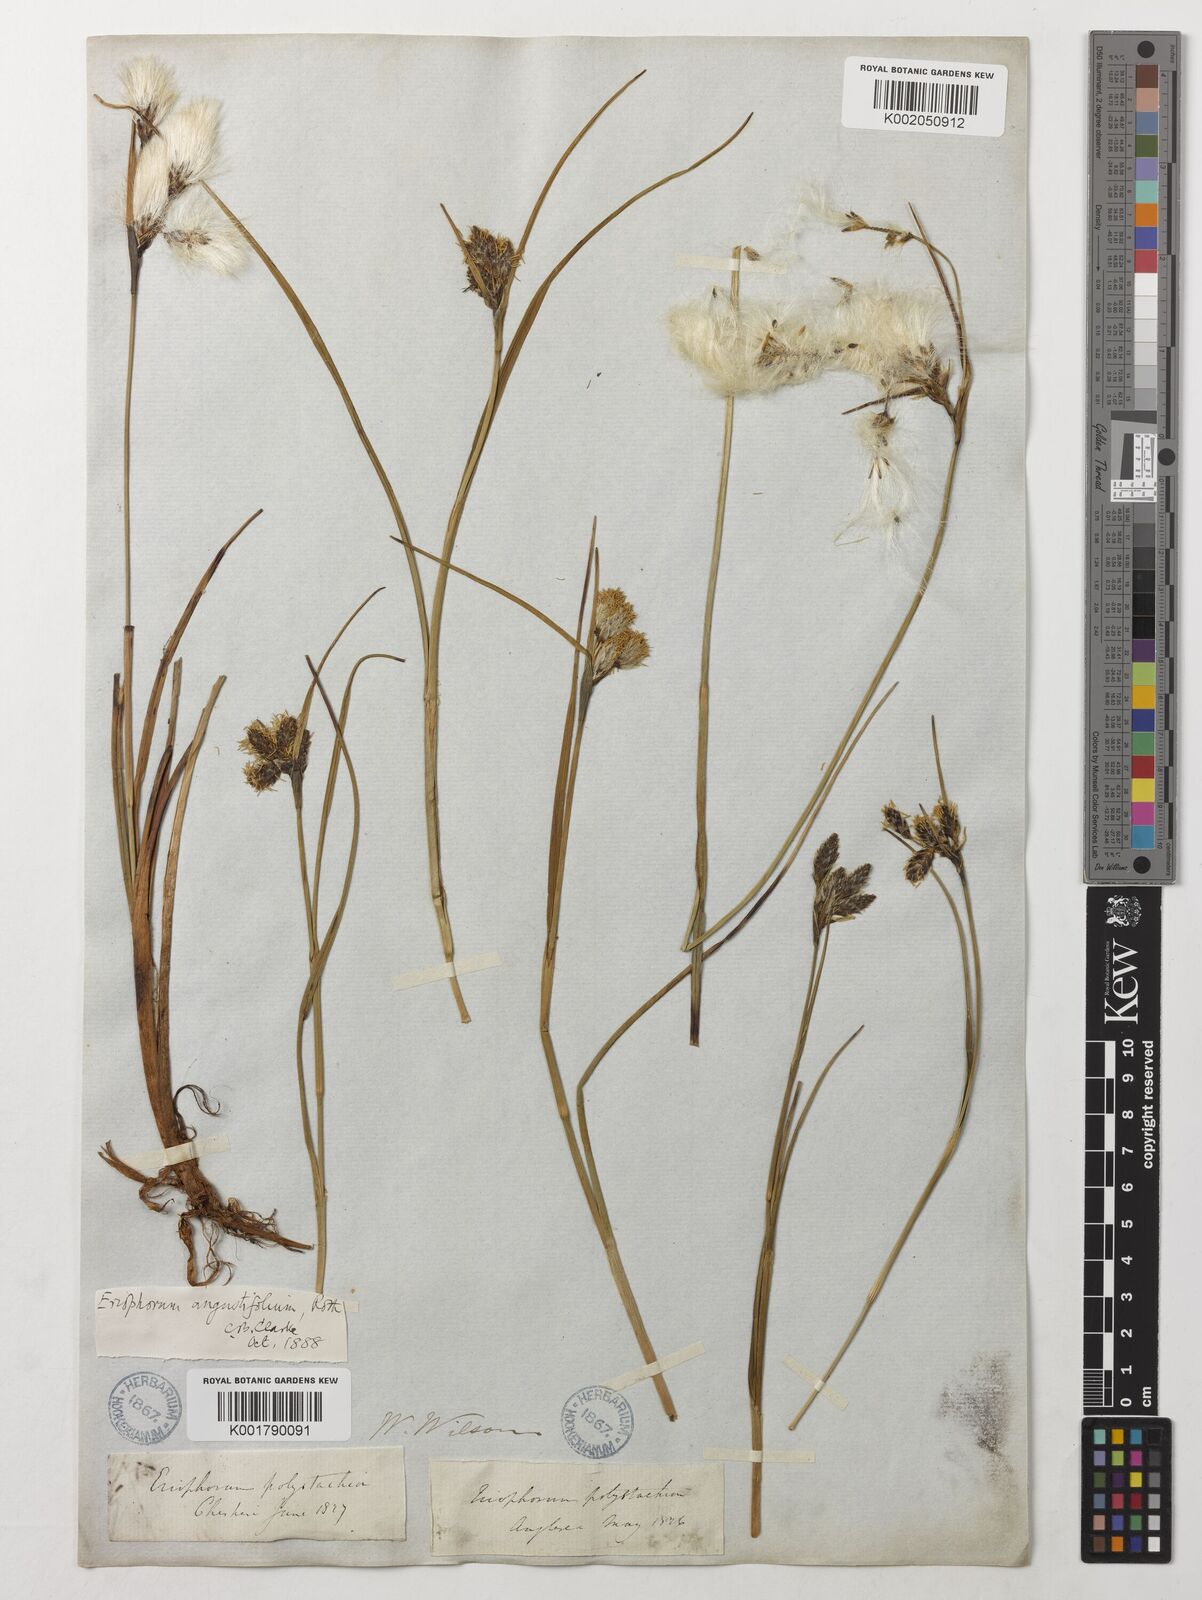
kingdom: Plantae
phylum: Tracheophyta
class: Liliopsida
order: Poales
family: Cyperaceae
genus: Eriophorum
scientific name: Eriophorum angustifolium
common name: Common cottongrass
